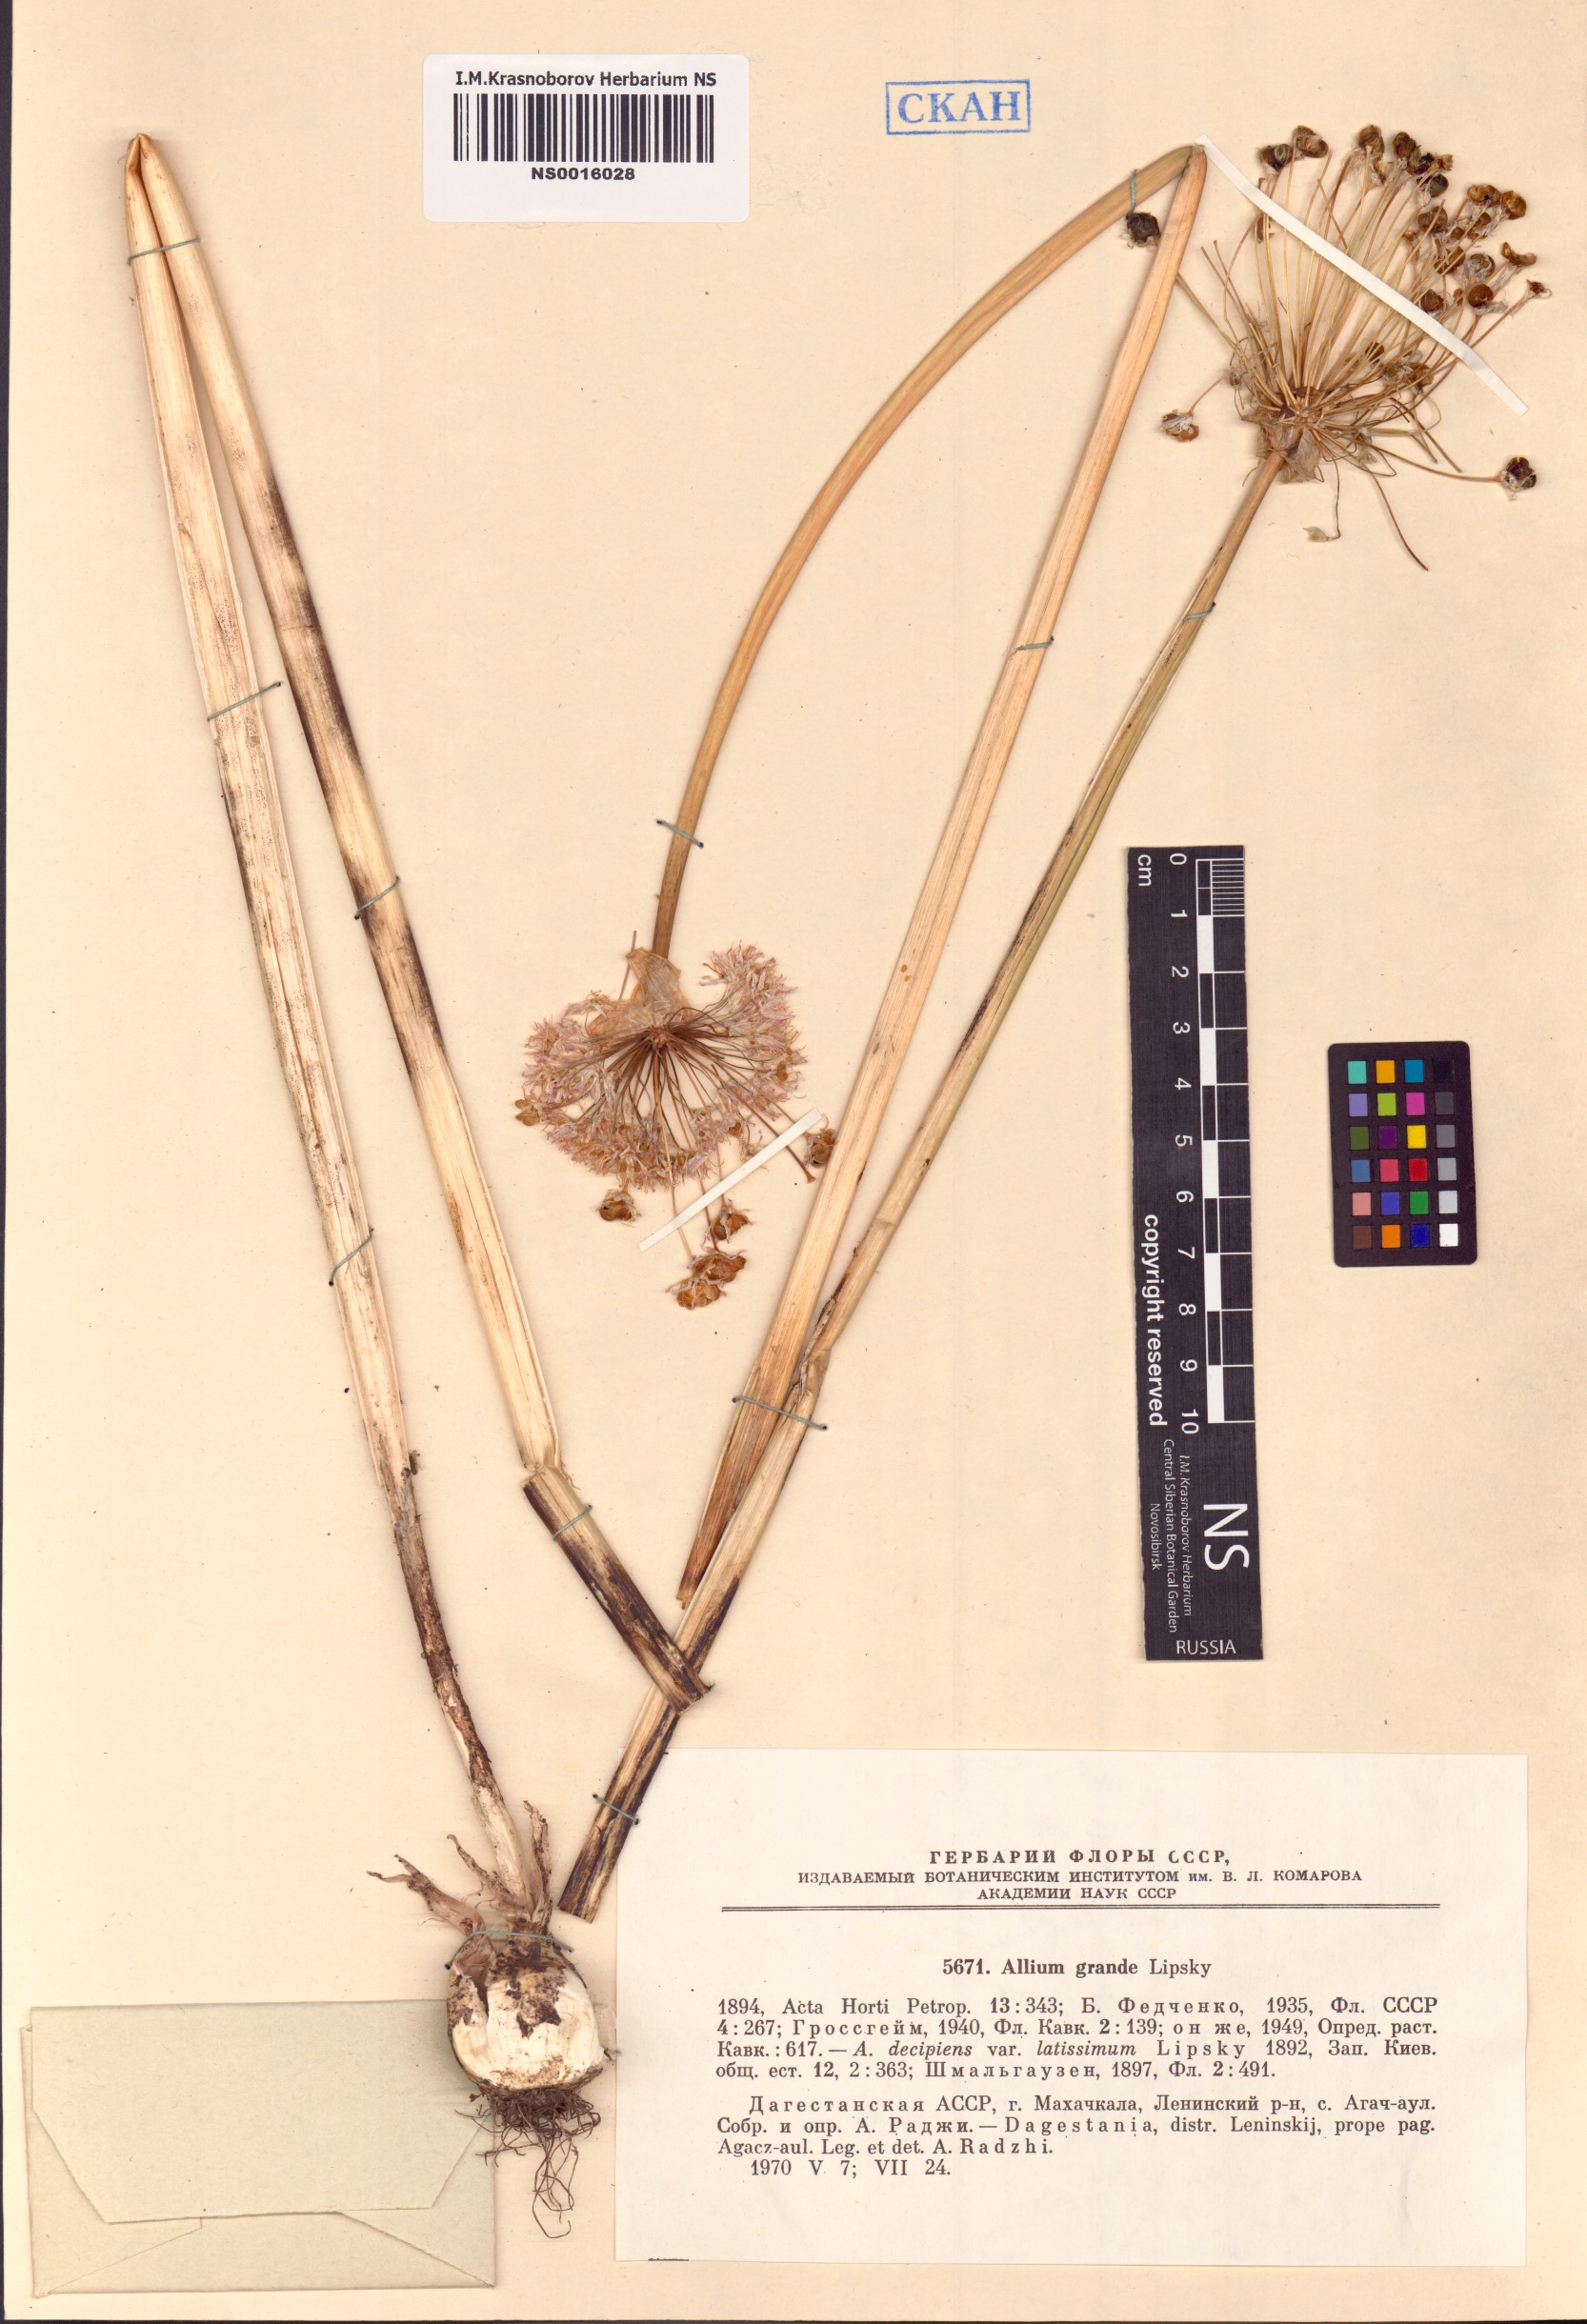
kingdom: Plantae
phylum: Tracheophyta
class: Liliopsida
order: Asparagales
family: Amaryllidaceae
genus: Allium
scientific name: Allium grande
